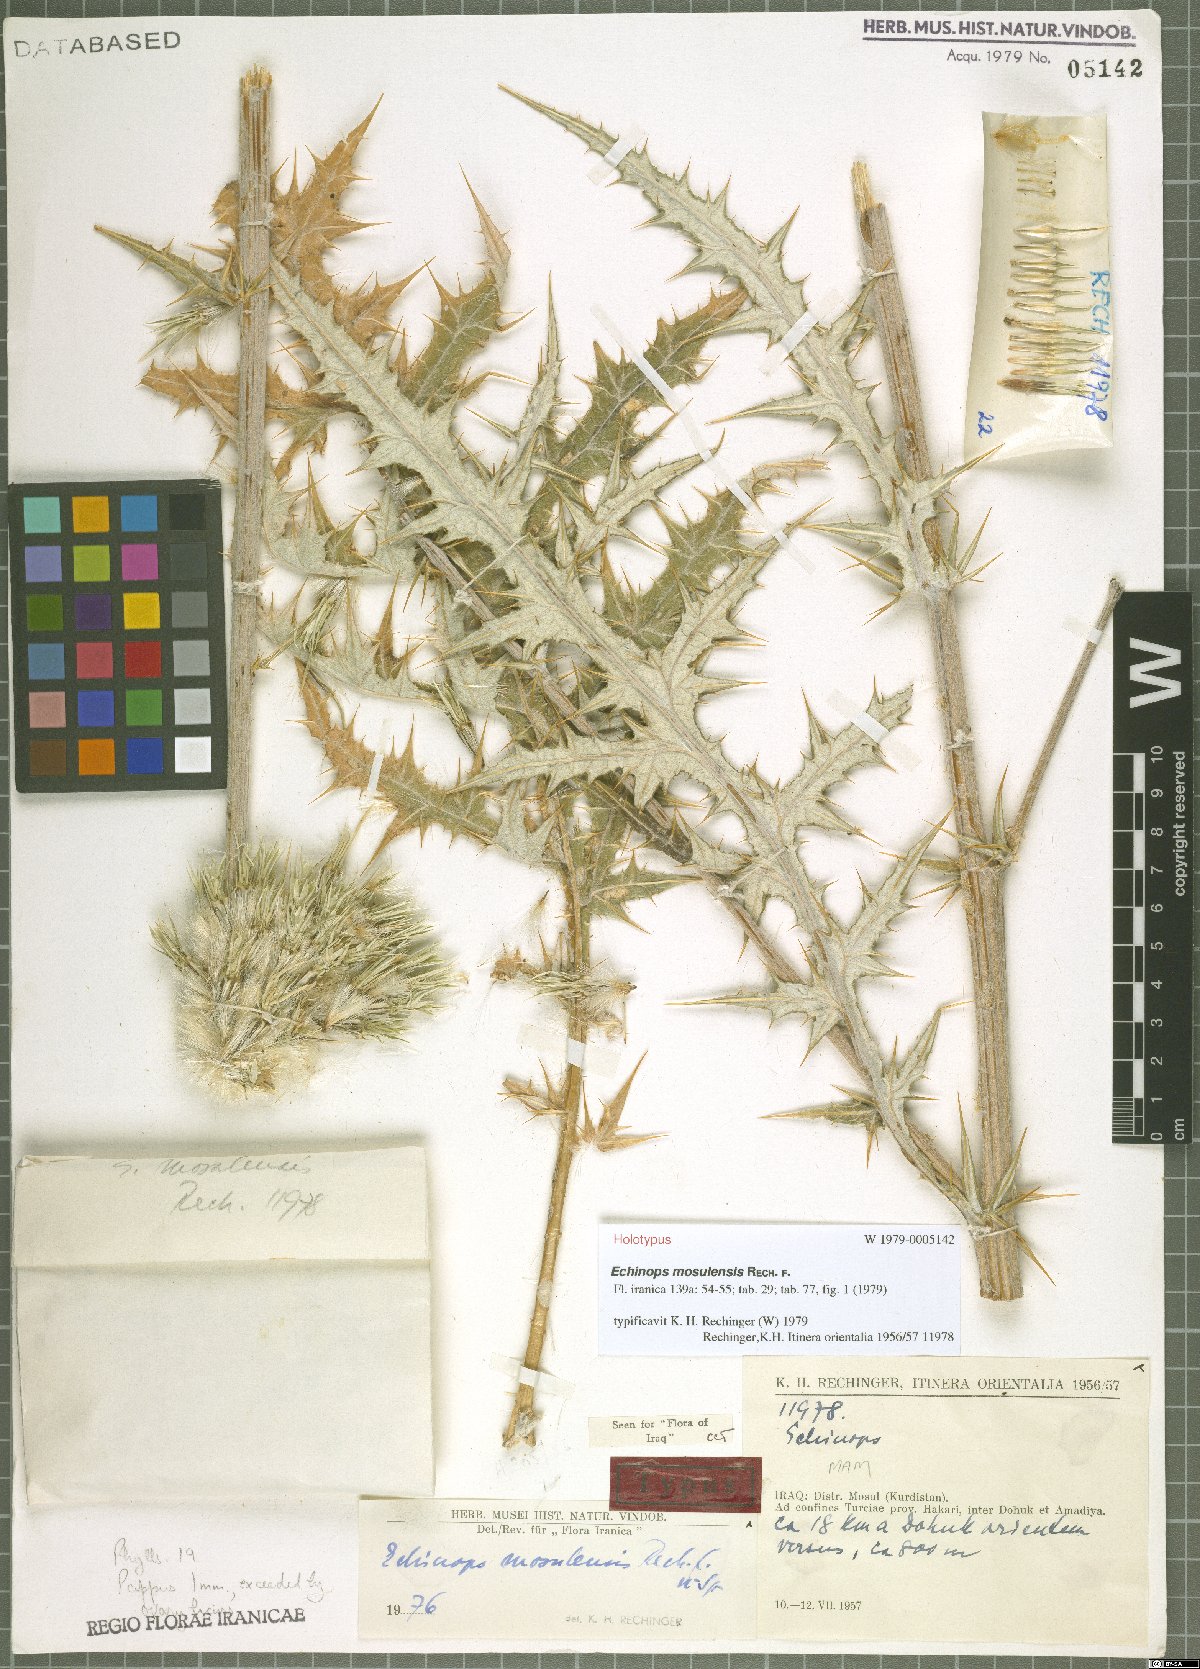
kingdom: Plantae
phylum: Tracheophyta
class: Magnoliopsida
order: Asterales
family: Asteraceae
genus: Echinops
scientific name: Echinops chardinii
